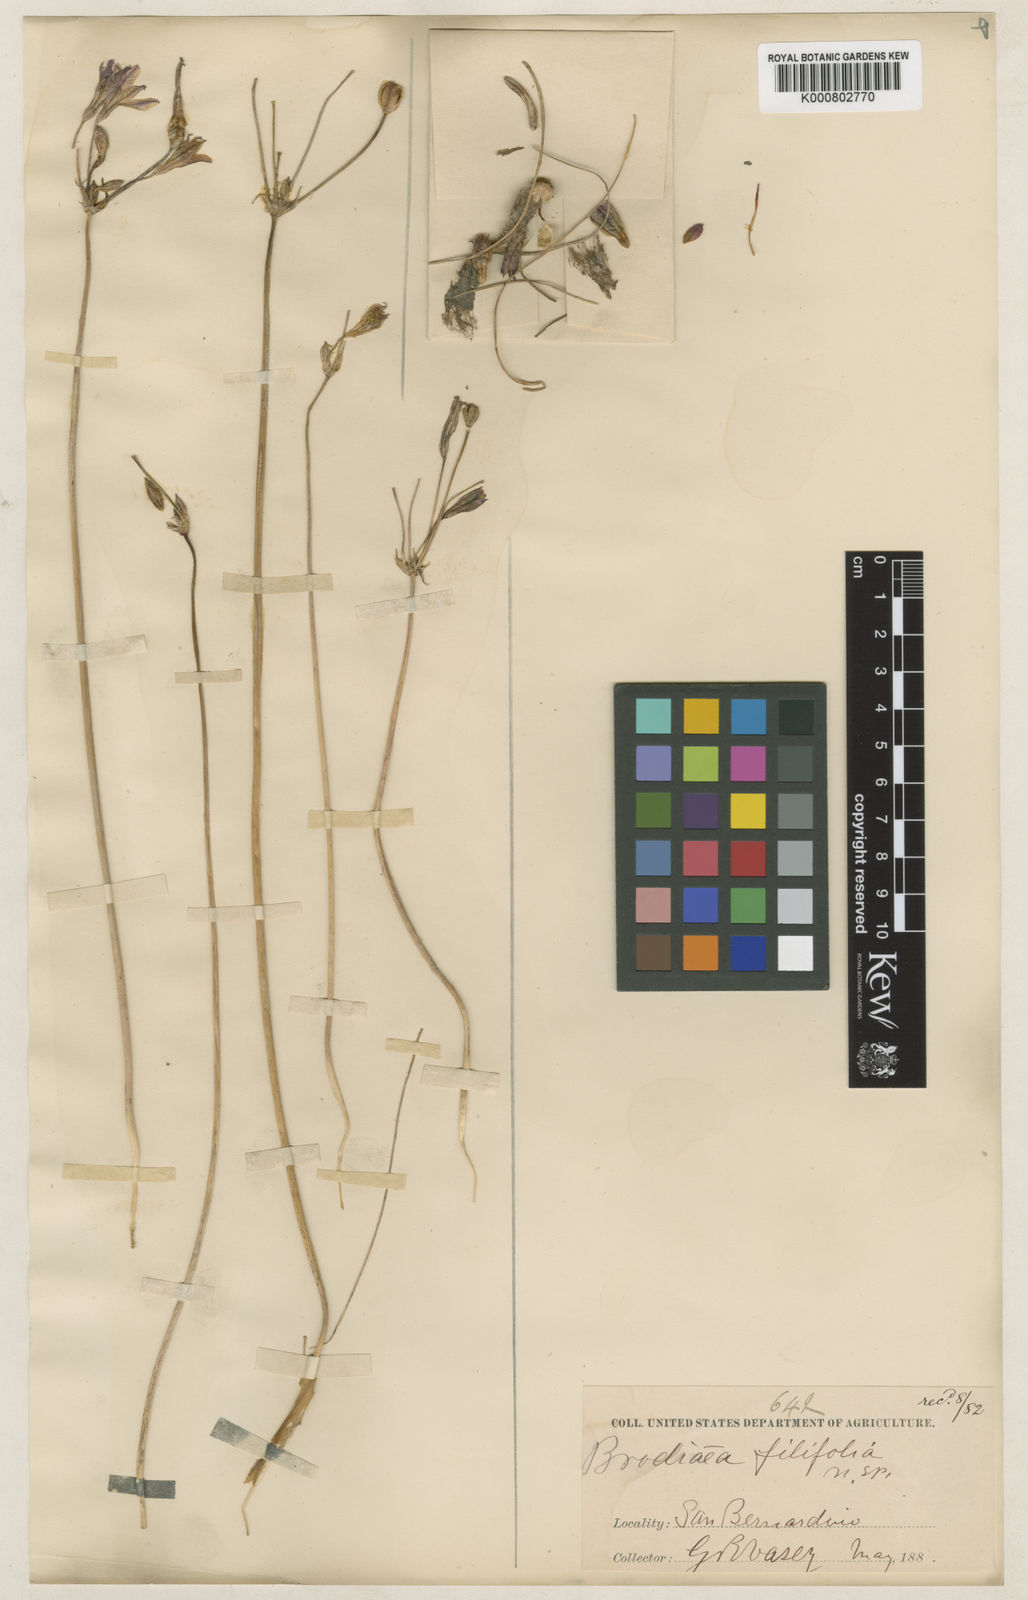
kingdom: Plantae
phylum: Tracheophyta
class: Liliopsida
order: Asparagales
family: Asparagaceae
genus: Brodiaea
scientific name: Brodiaea filifolia
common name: Threadleaf brodiaea
